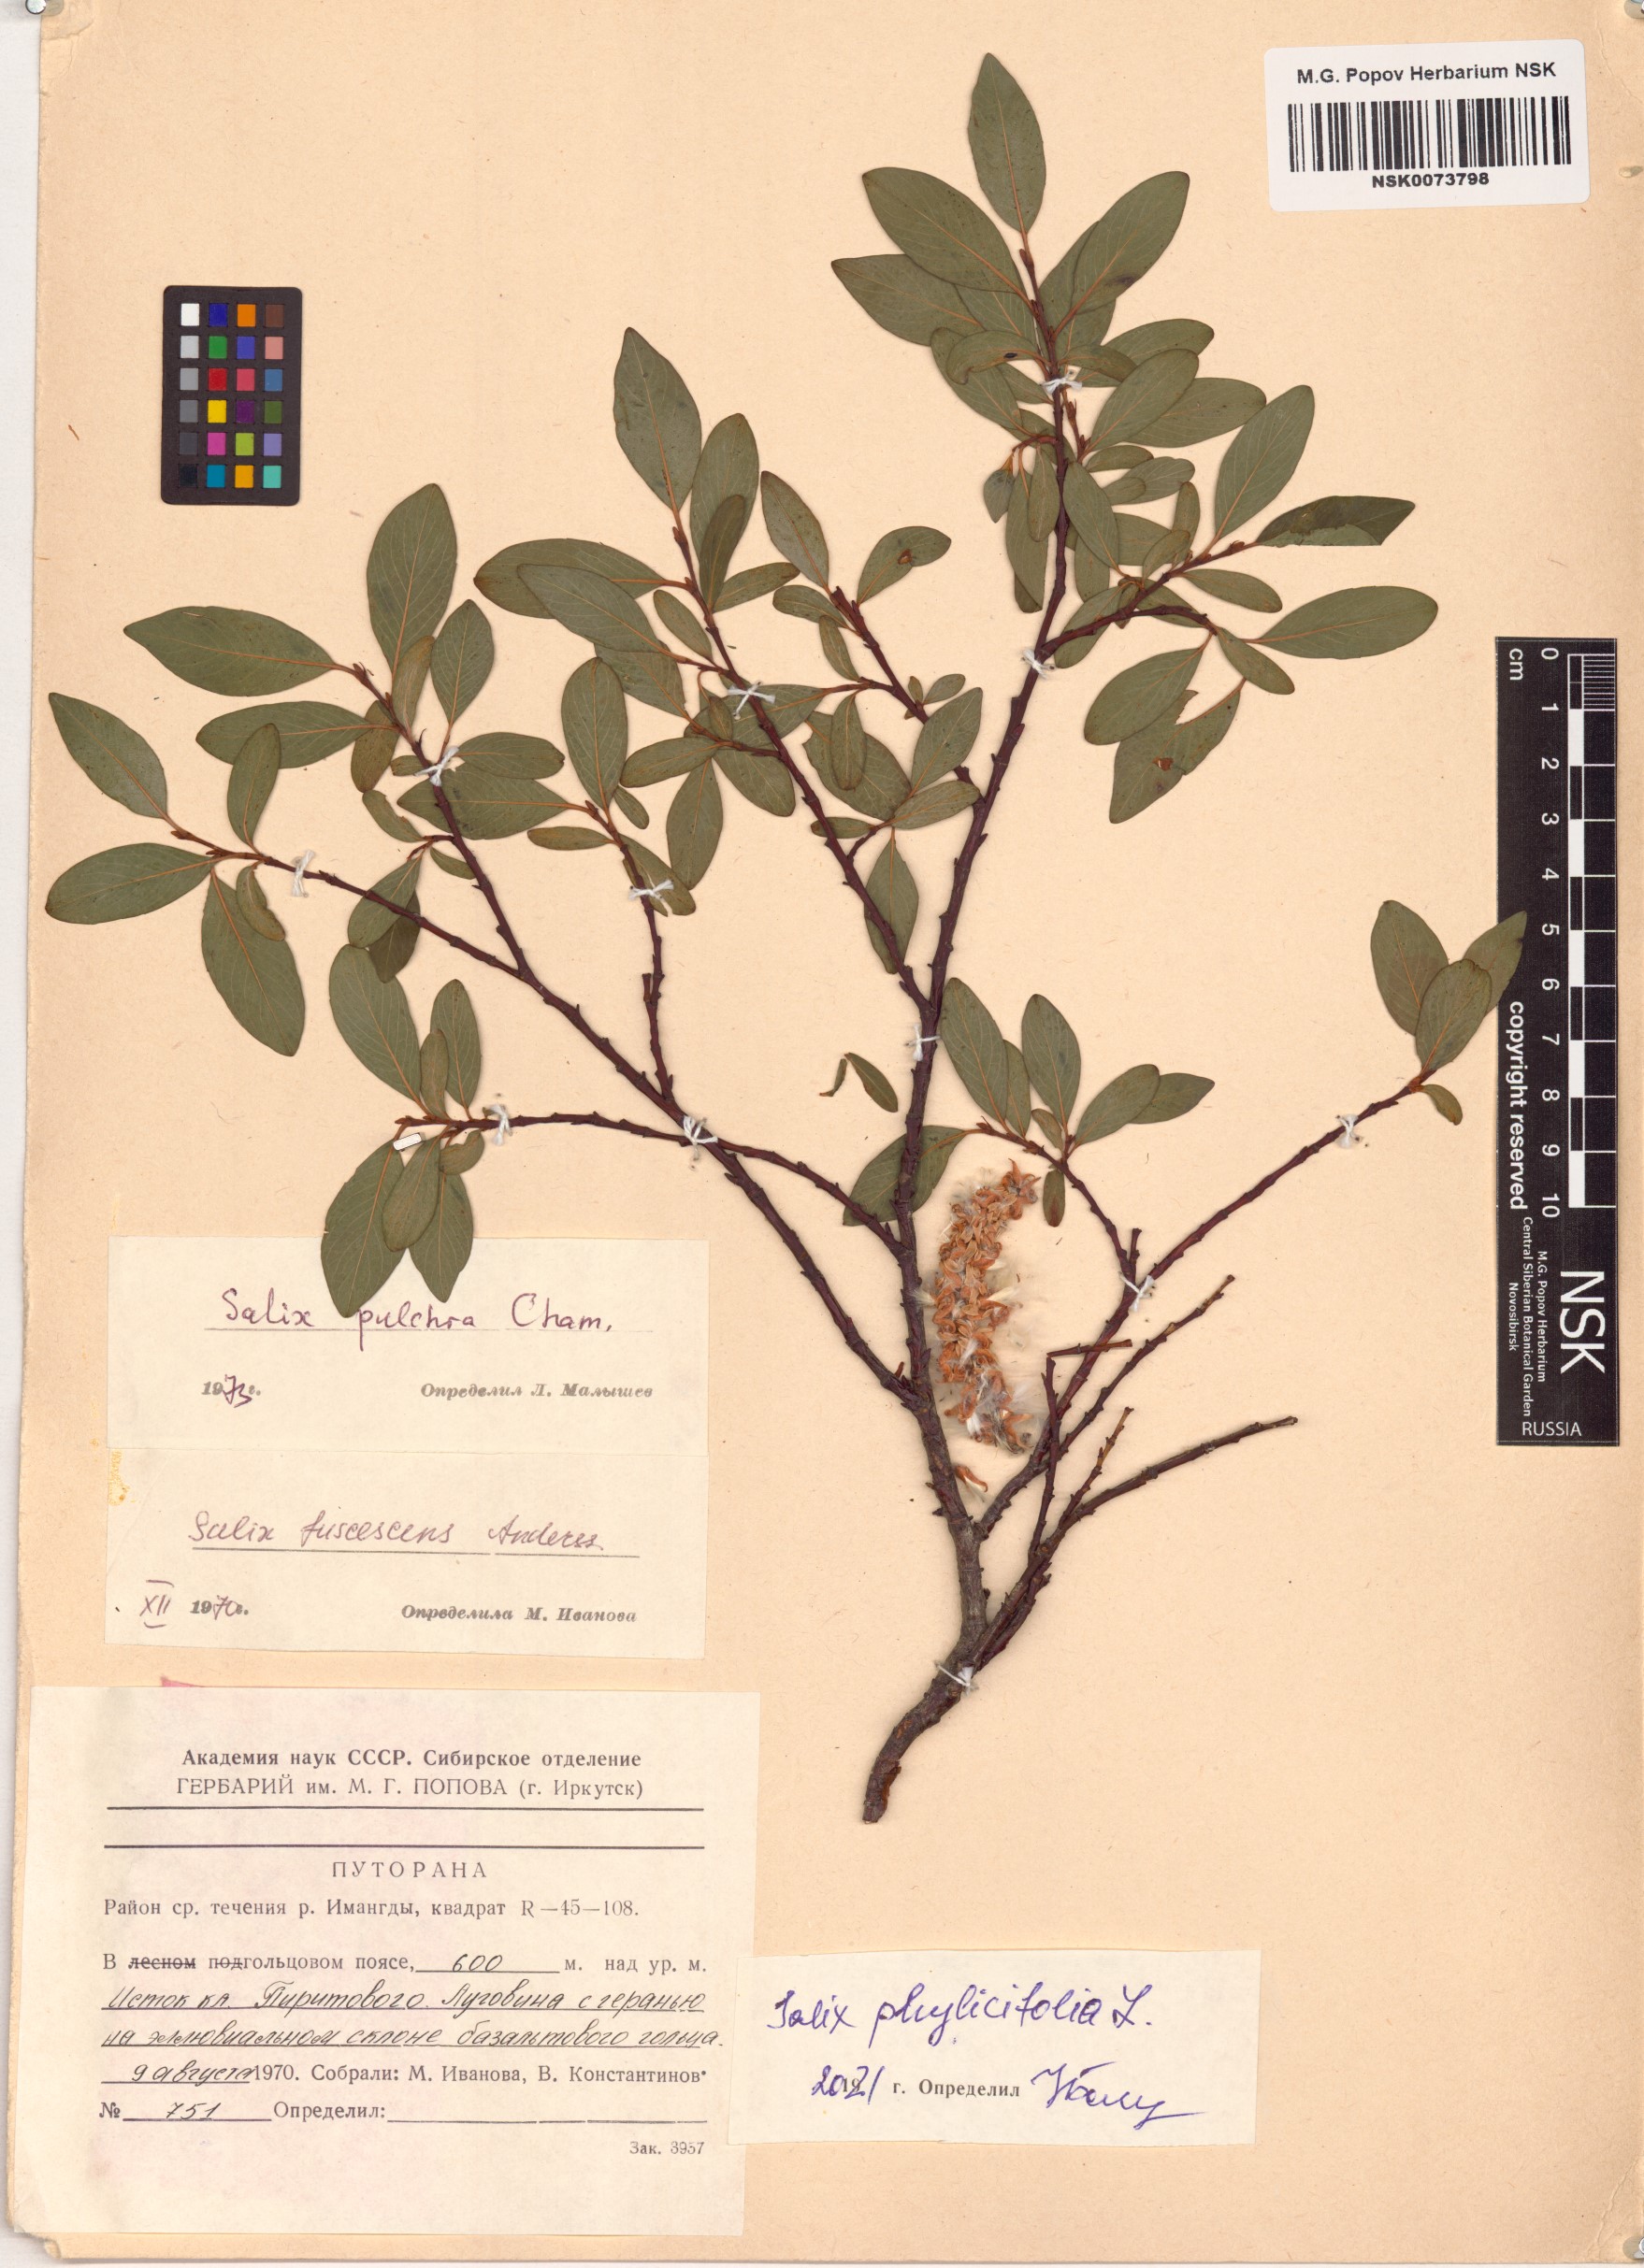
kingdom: Plantae
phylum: Tracheophyta
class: Magnoliopsida
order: Malpighiales
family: Salicaceae
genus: Salix
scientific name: Salix phylicifolia
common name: Tea-leaved willow
